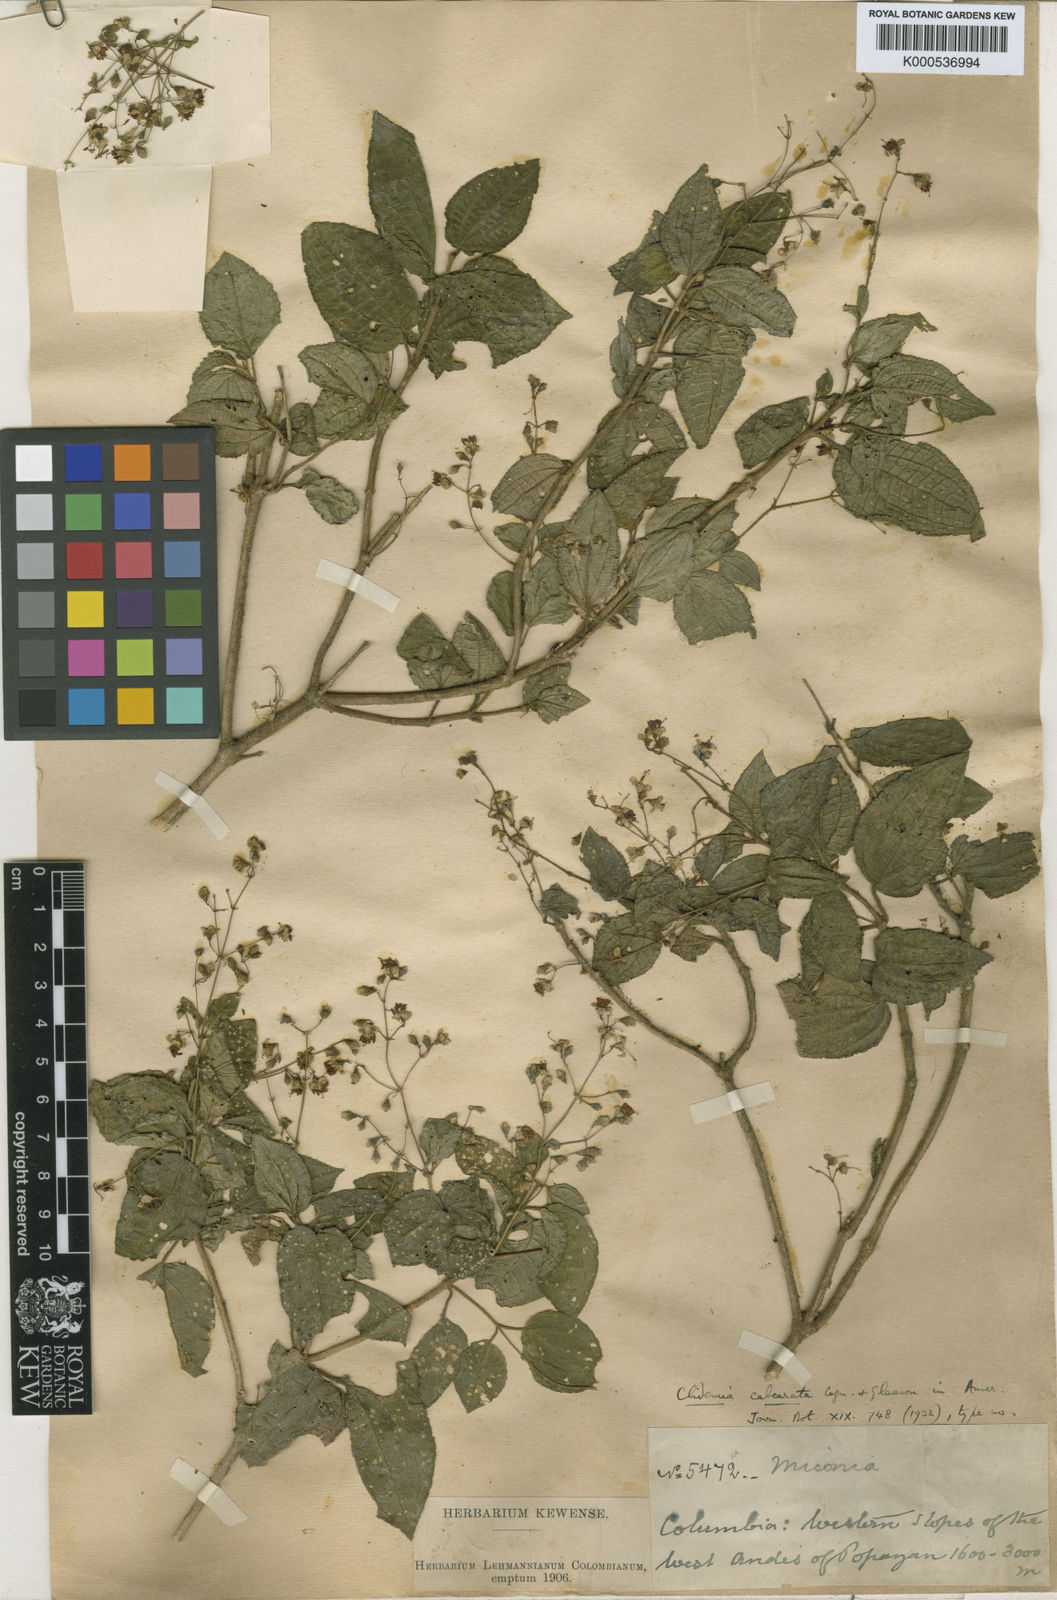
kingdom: Plantae
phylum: Tracheophyta
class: Magnoliopsida
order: Myrtales
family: Melastomataceae
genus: Miconia
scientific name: Miconia neocalcarata
